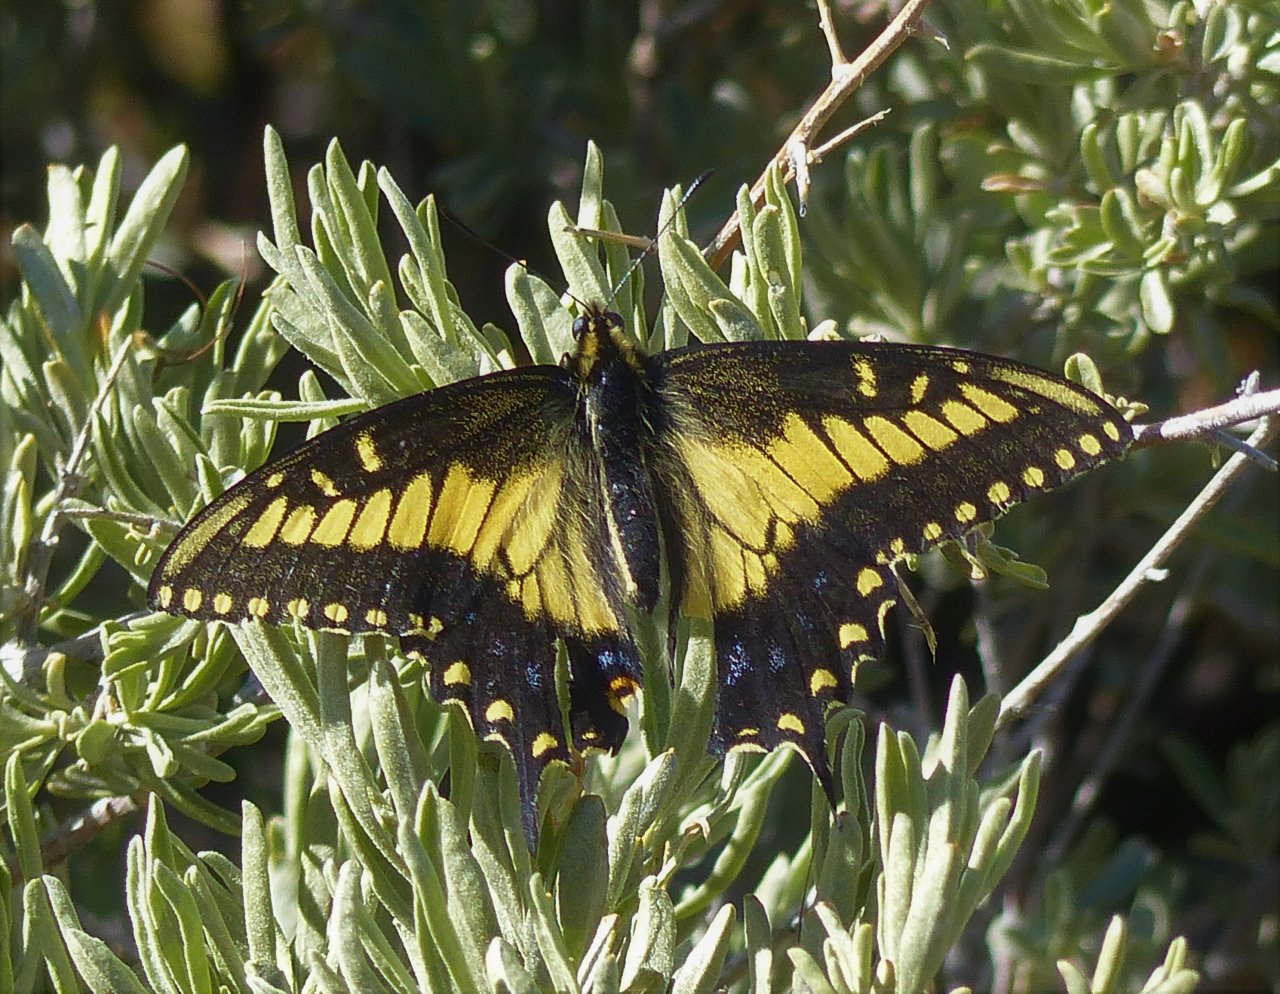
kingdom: Animalia
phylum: Arthropoda
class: Insecta
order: Lepidoptera
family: Papilionidae
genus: Papilio
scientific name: Papilio polyxenes
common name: Black Swallowtail
